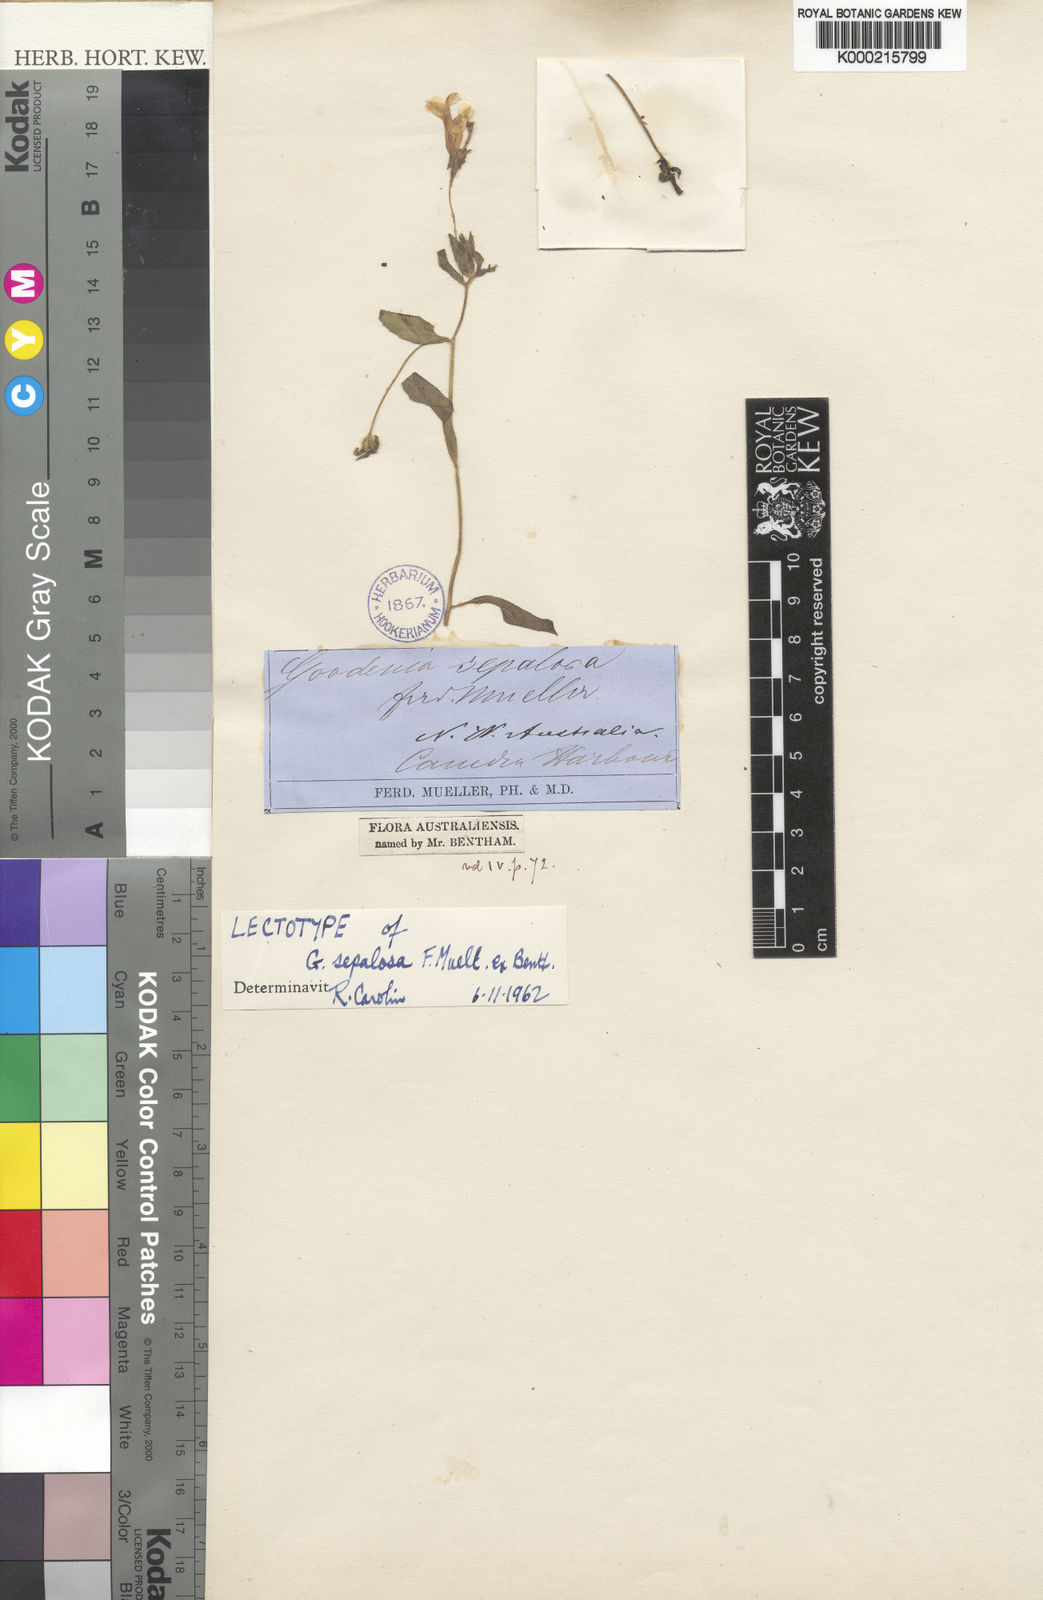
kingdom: Plantae
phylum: Tracheophyta
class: Magnoliopsida
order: Asterales
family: Goodeniaceae
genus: Goodenia
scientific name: Goodenia sepalosa
